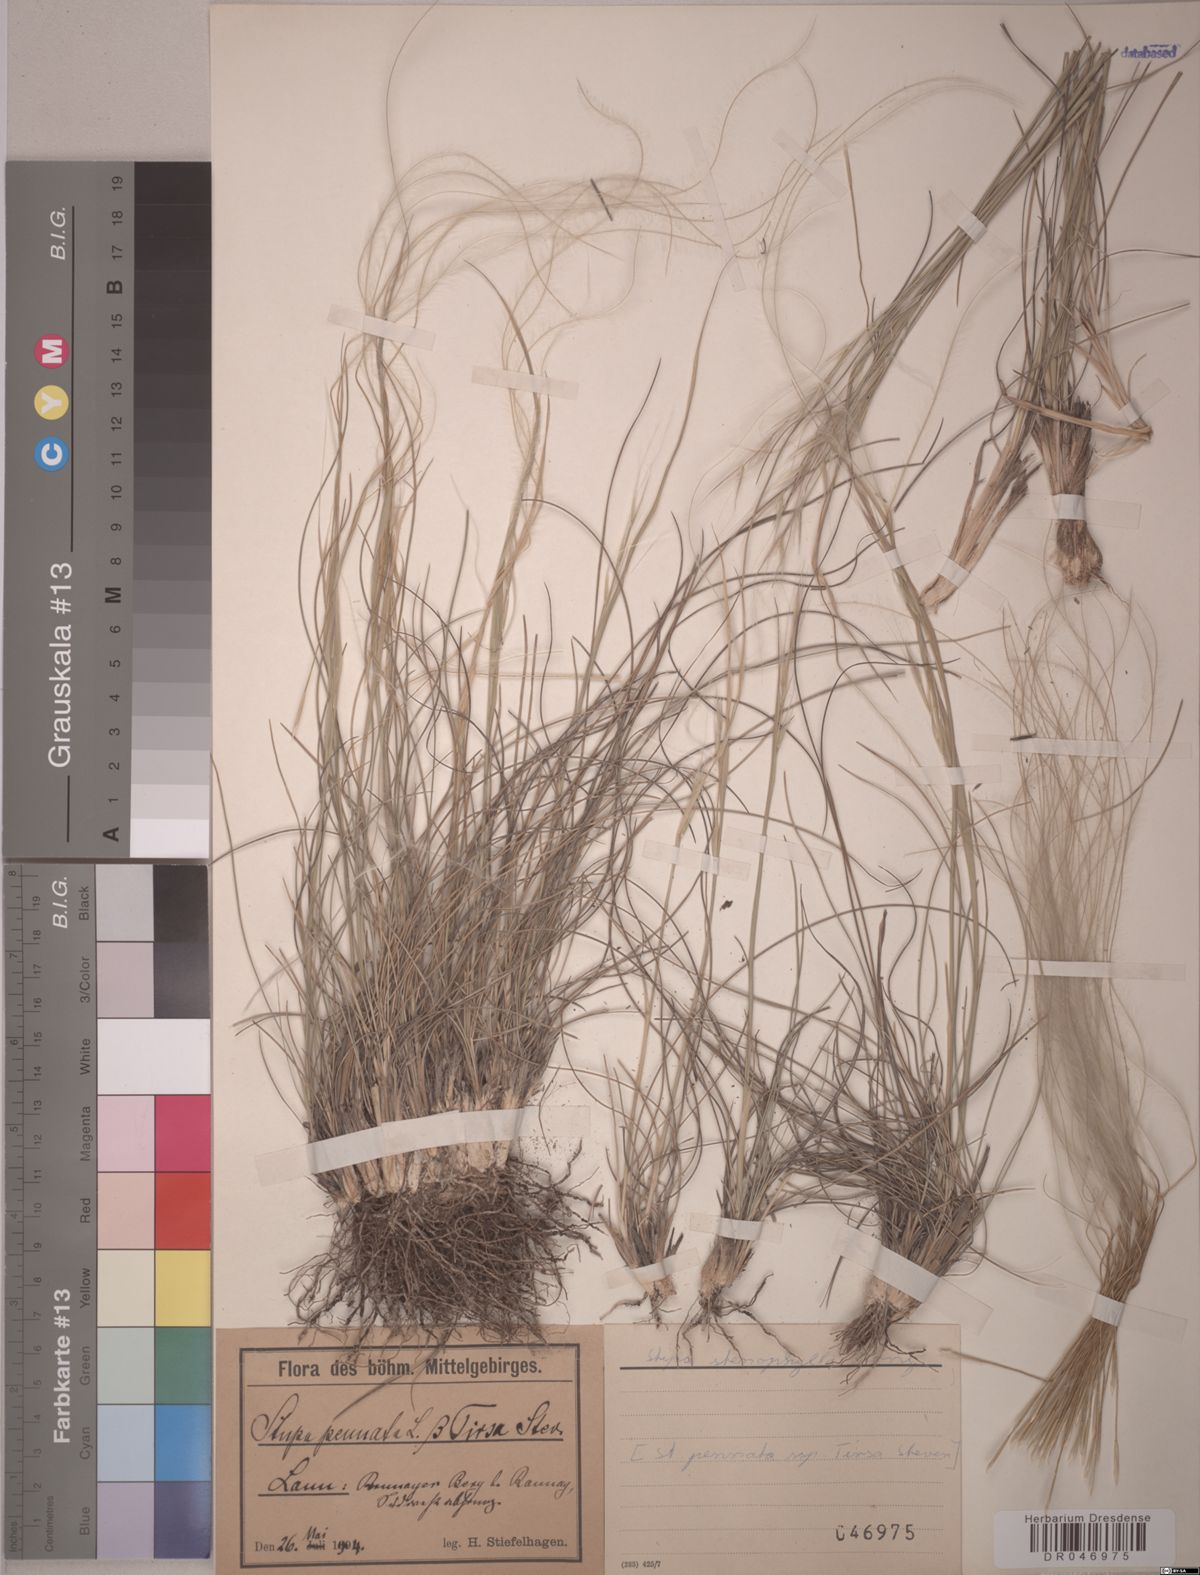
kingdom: Plantae
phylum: Tracheophyta
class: Liliopsida
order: Poales
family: Poaceae
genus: Stipa
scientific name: Stipa tirsa
